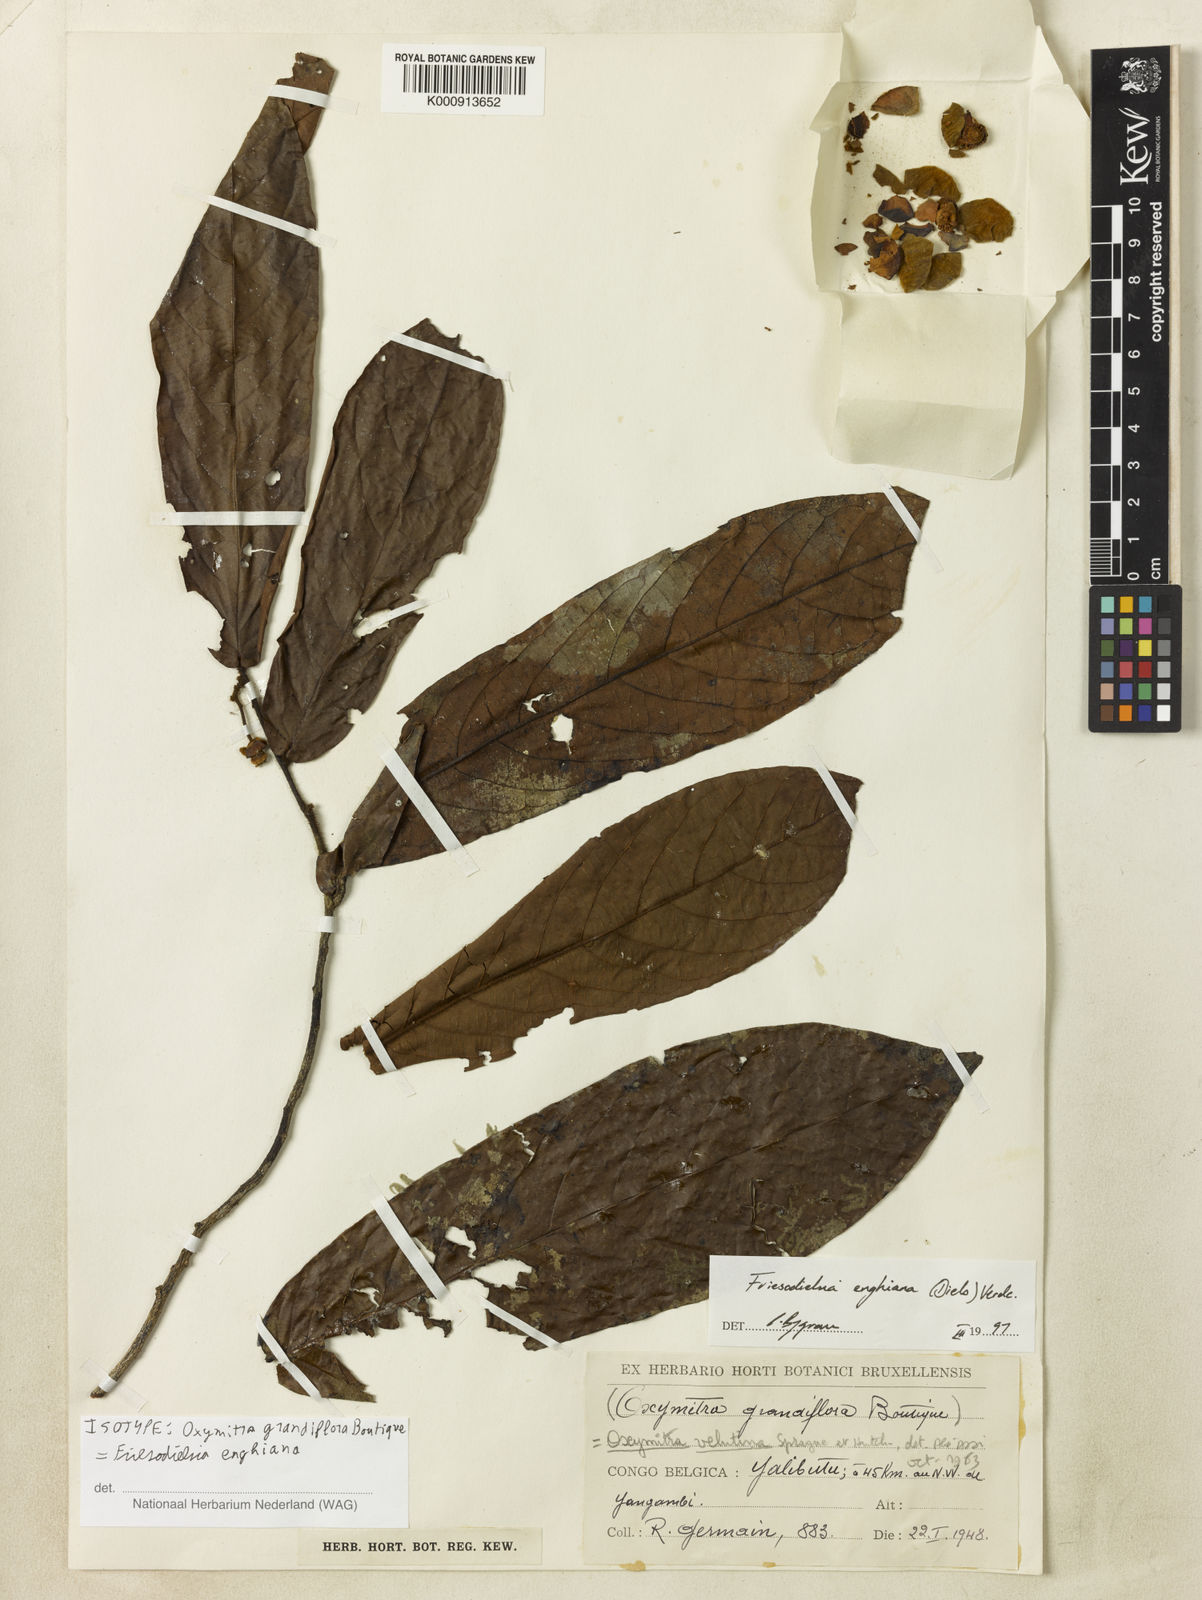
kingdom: Plantae
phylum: Tracheophyta
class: Magnoliopsida
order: Magnoliales
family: Annonaceae
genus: Friesodielsia
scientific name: Friesodielsia enghiana
